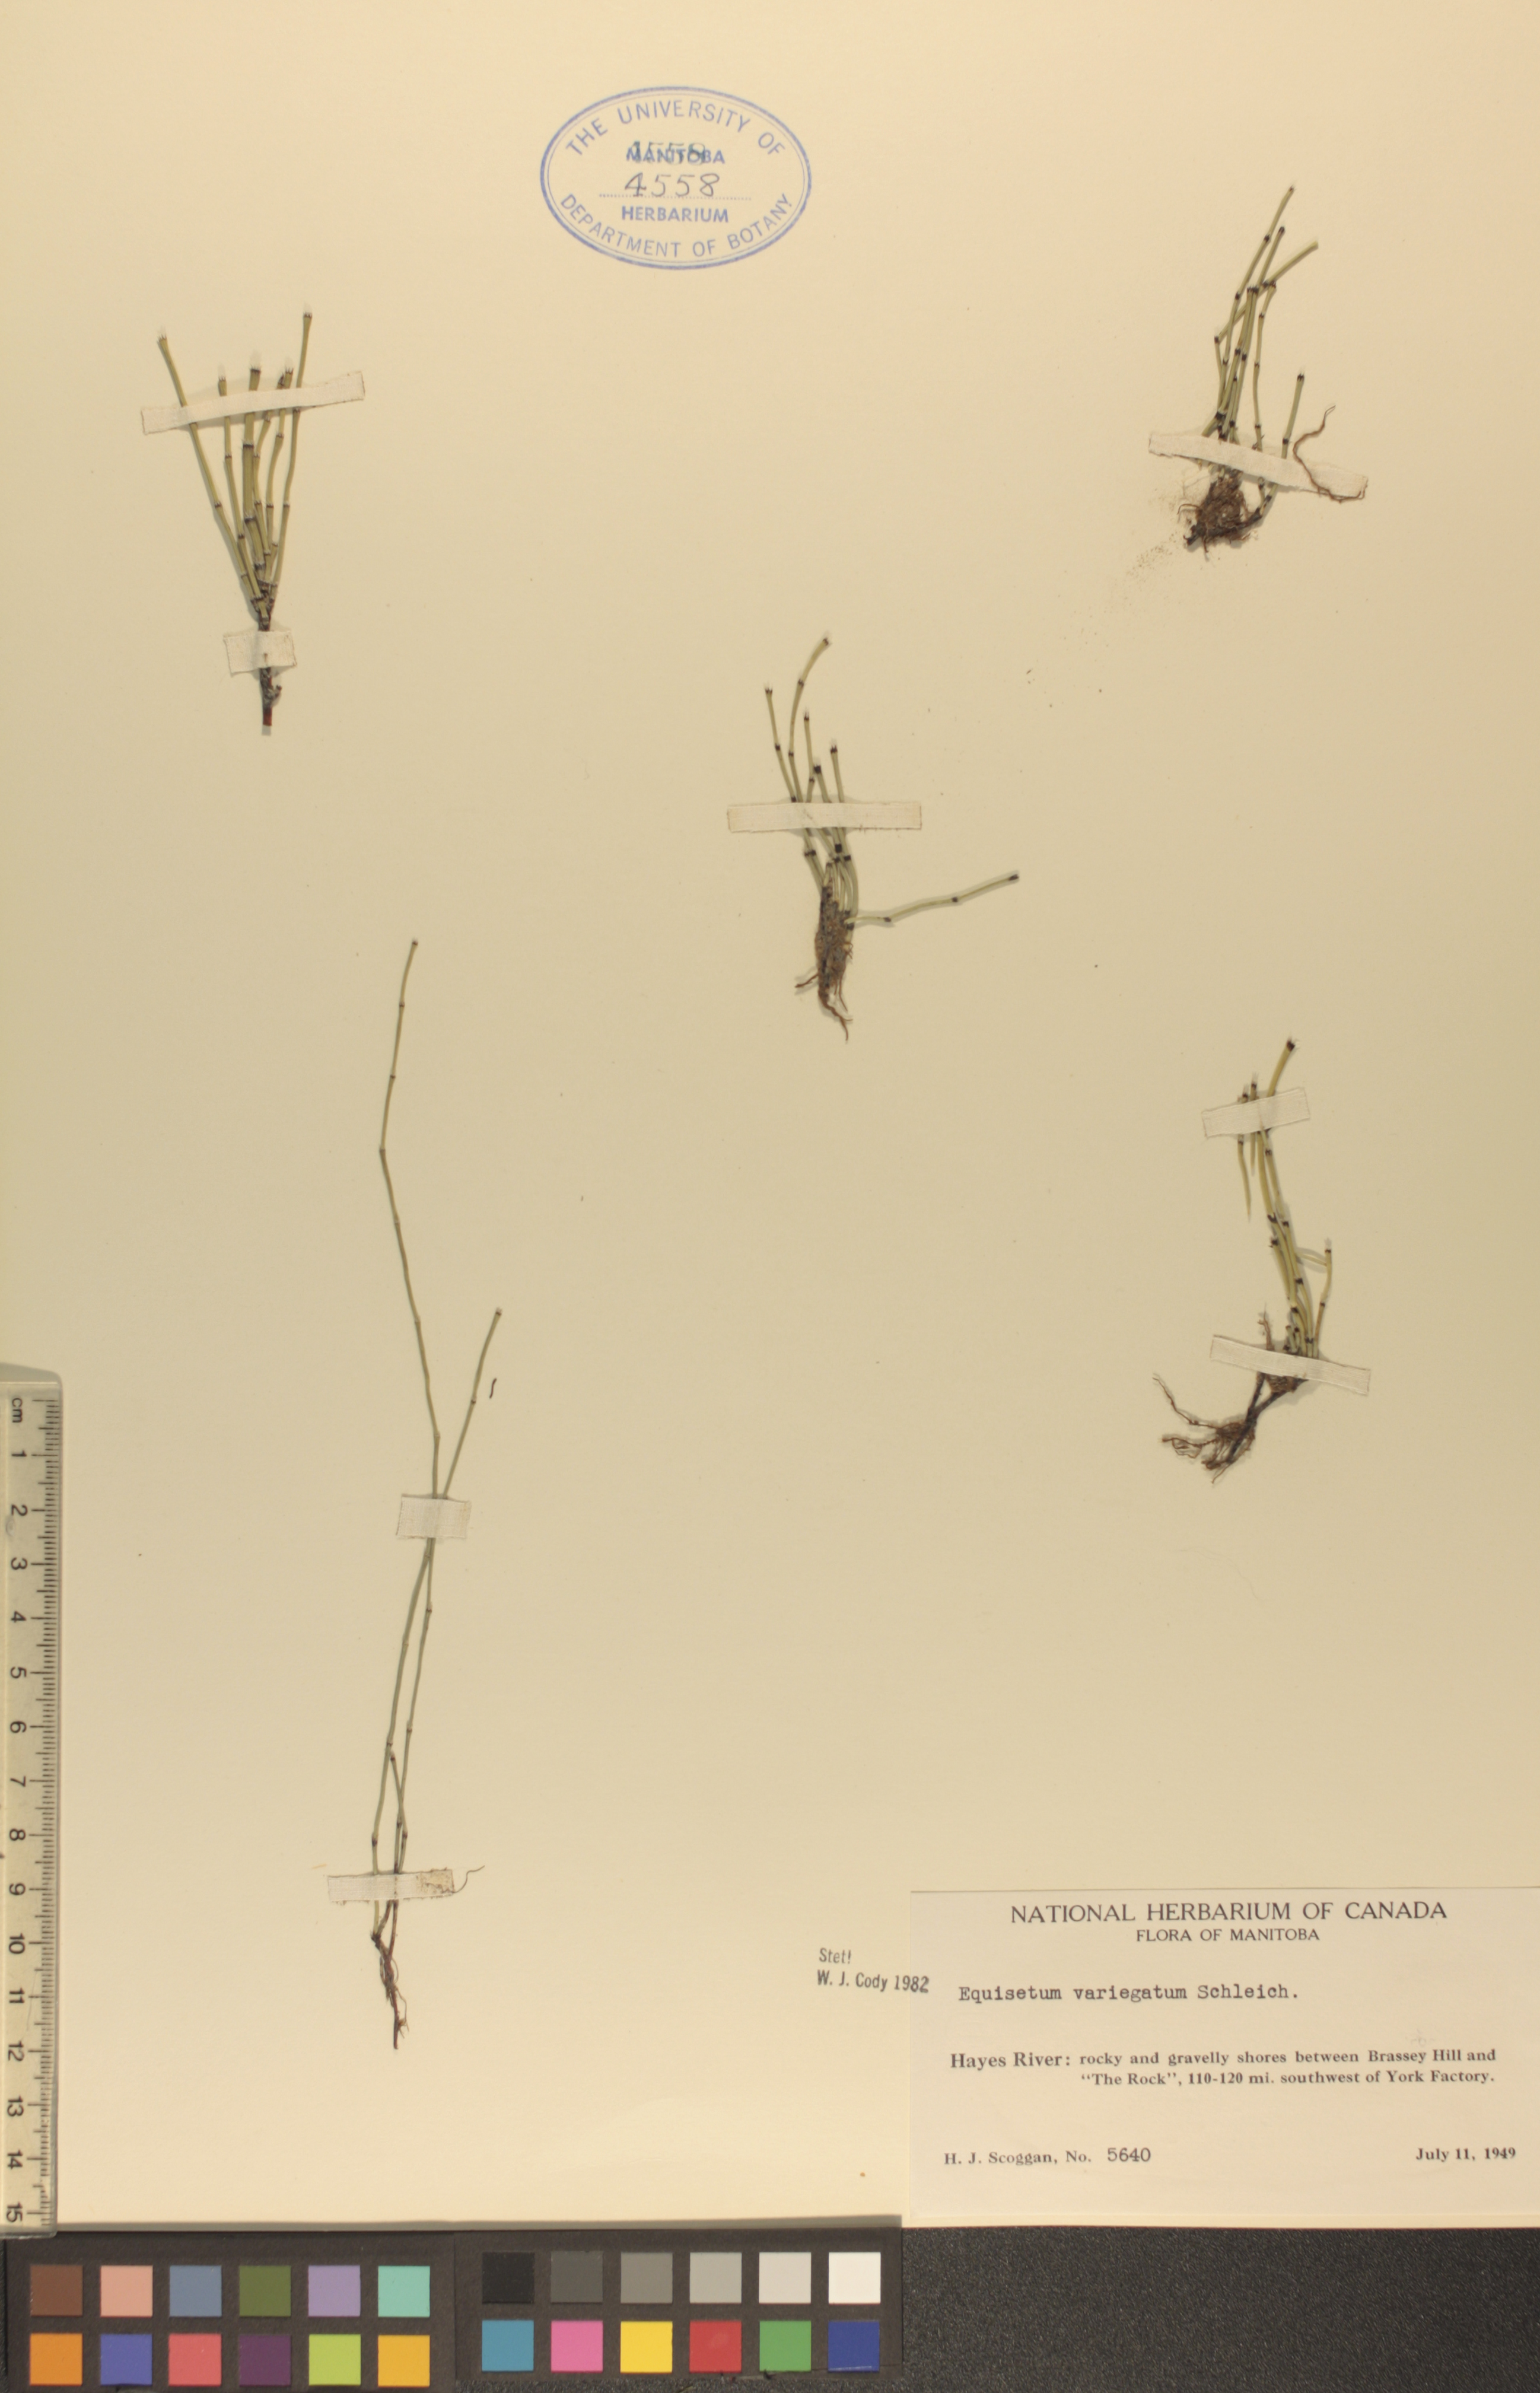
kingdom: Plantae
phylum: Tracheophyta
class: Polypodiopsida
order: Equisetales
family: Equisetaceae
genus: Equisetum
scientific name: Equisetum variegatum
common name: Variegated horsetail
